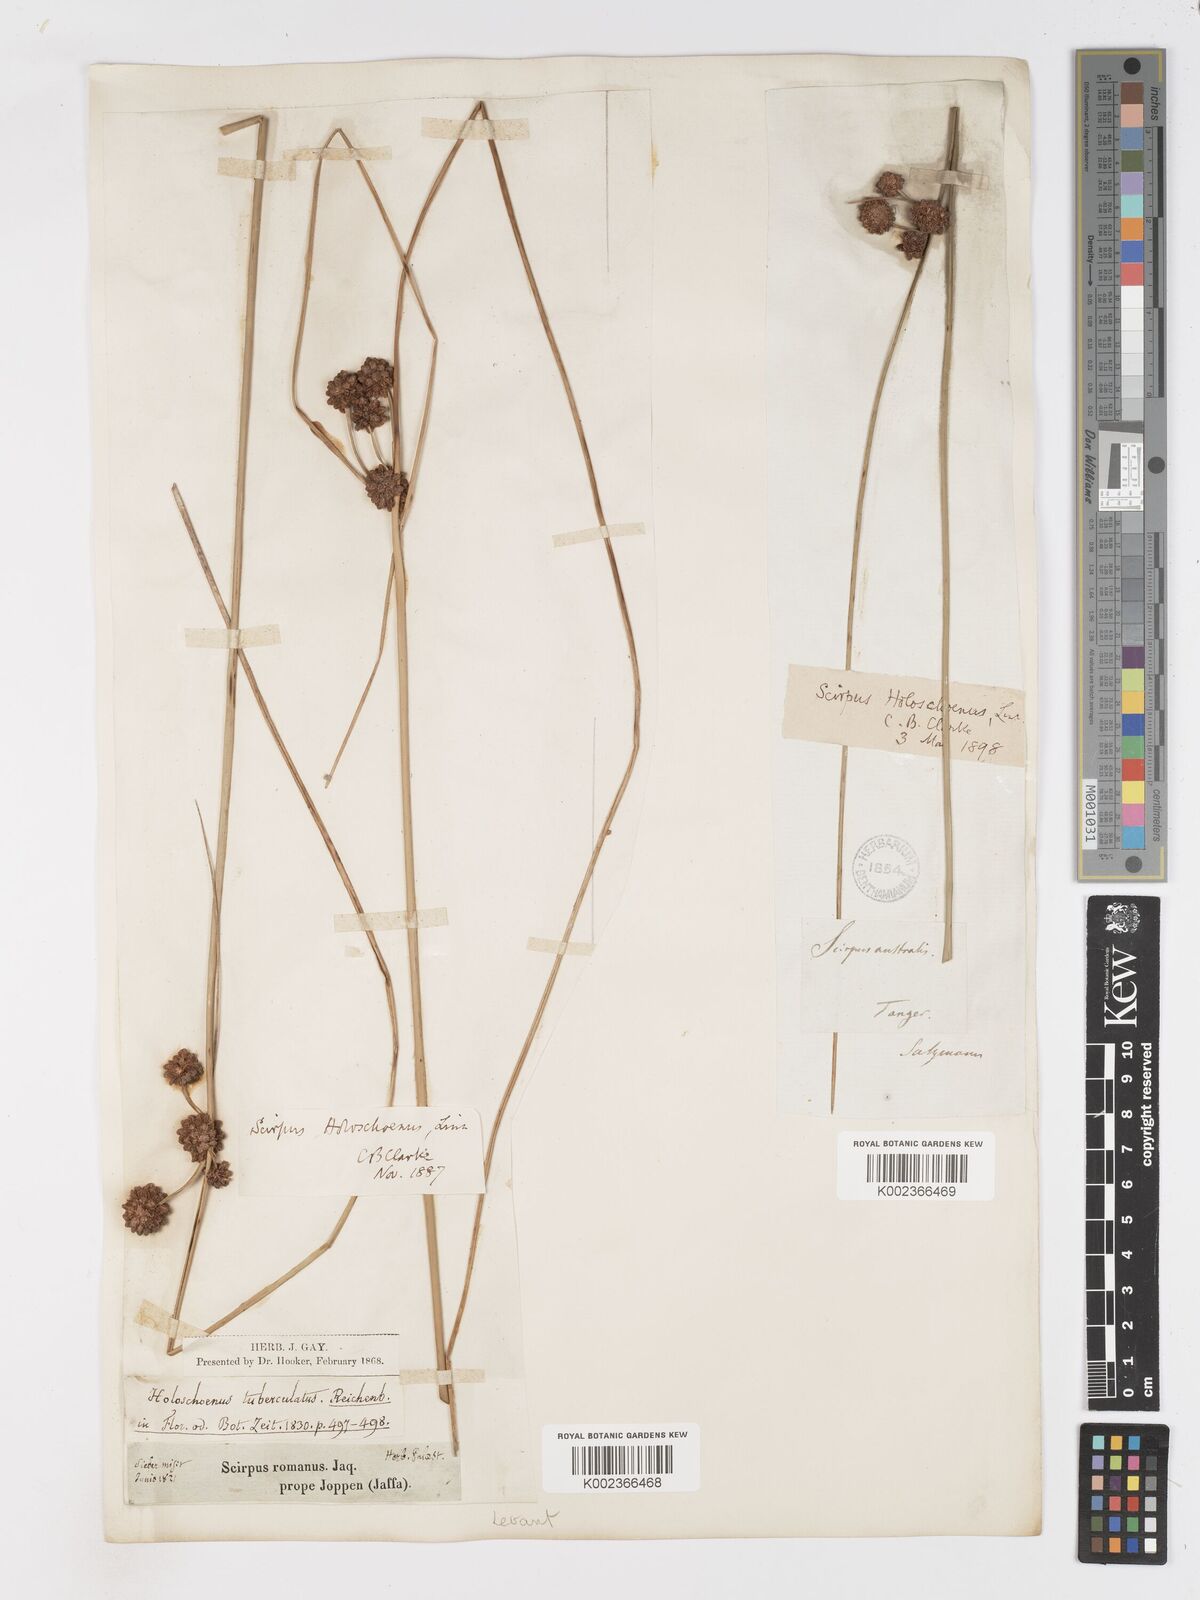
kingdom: Plantae
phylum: Tracheophyta
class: Liliopsida
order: Poales
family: Cyperaceae
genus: Scirpoides
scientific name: Scirpoides holoschoenus
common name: Round-headed club-rush
